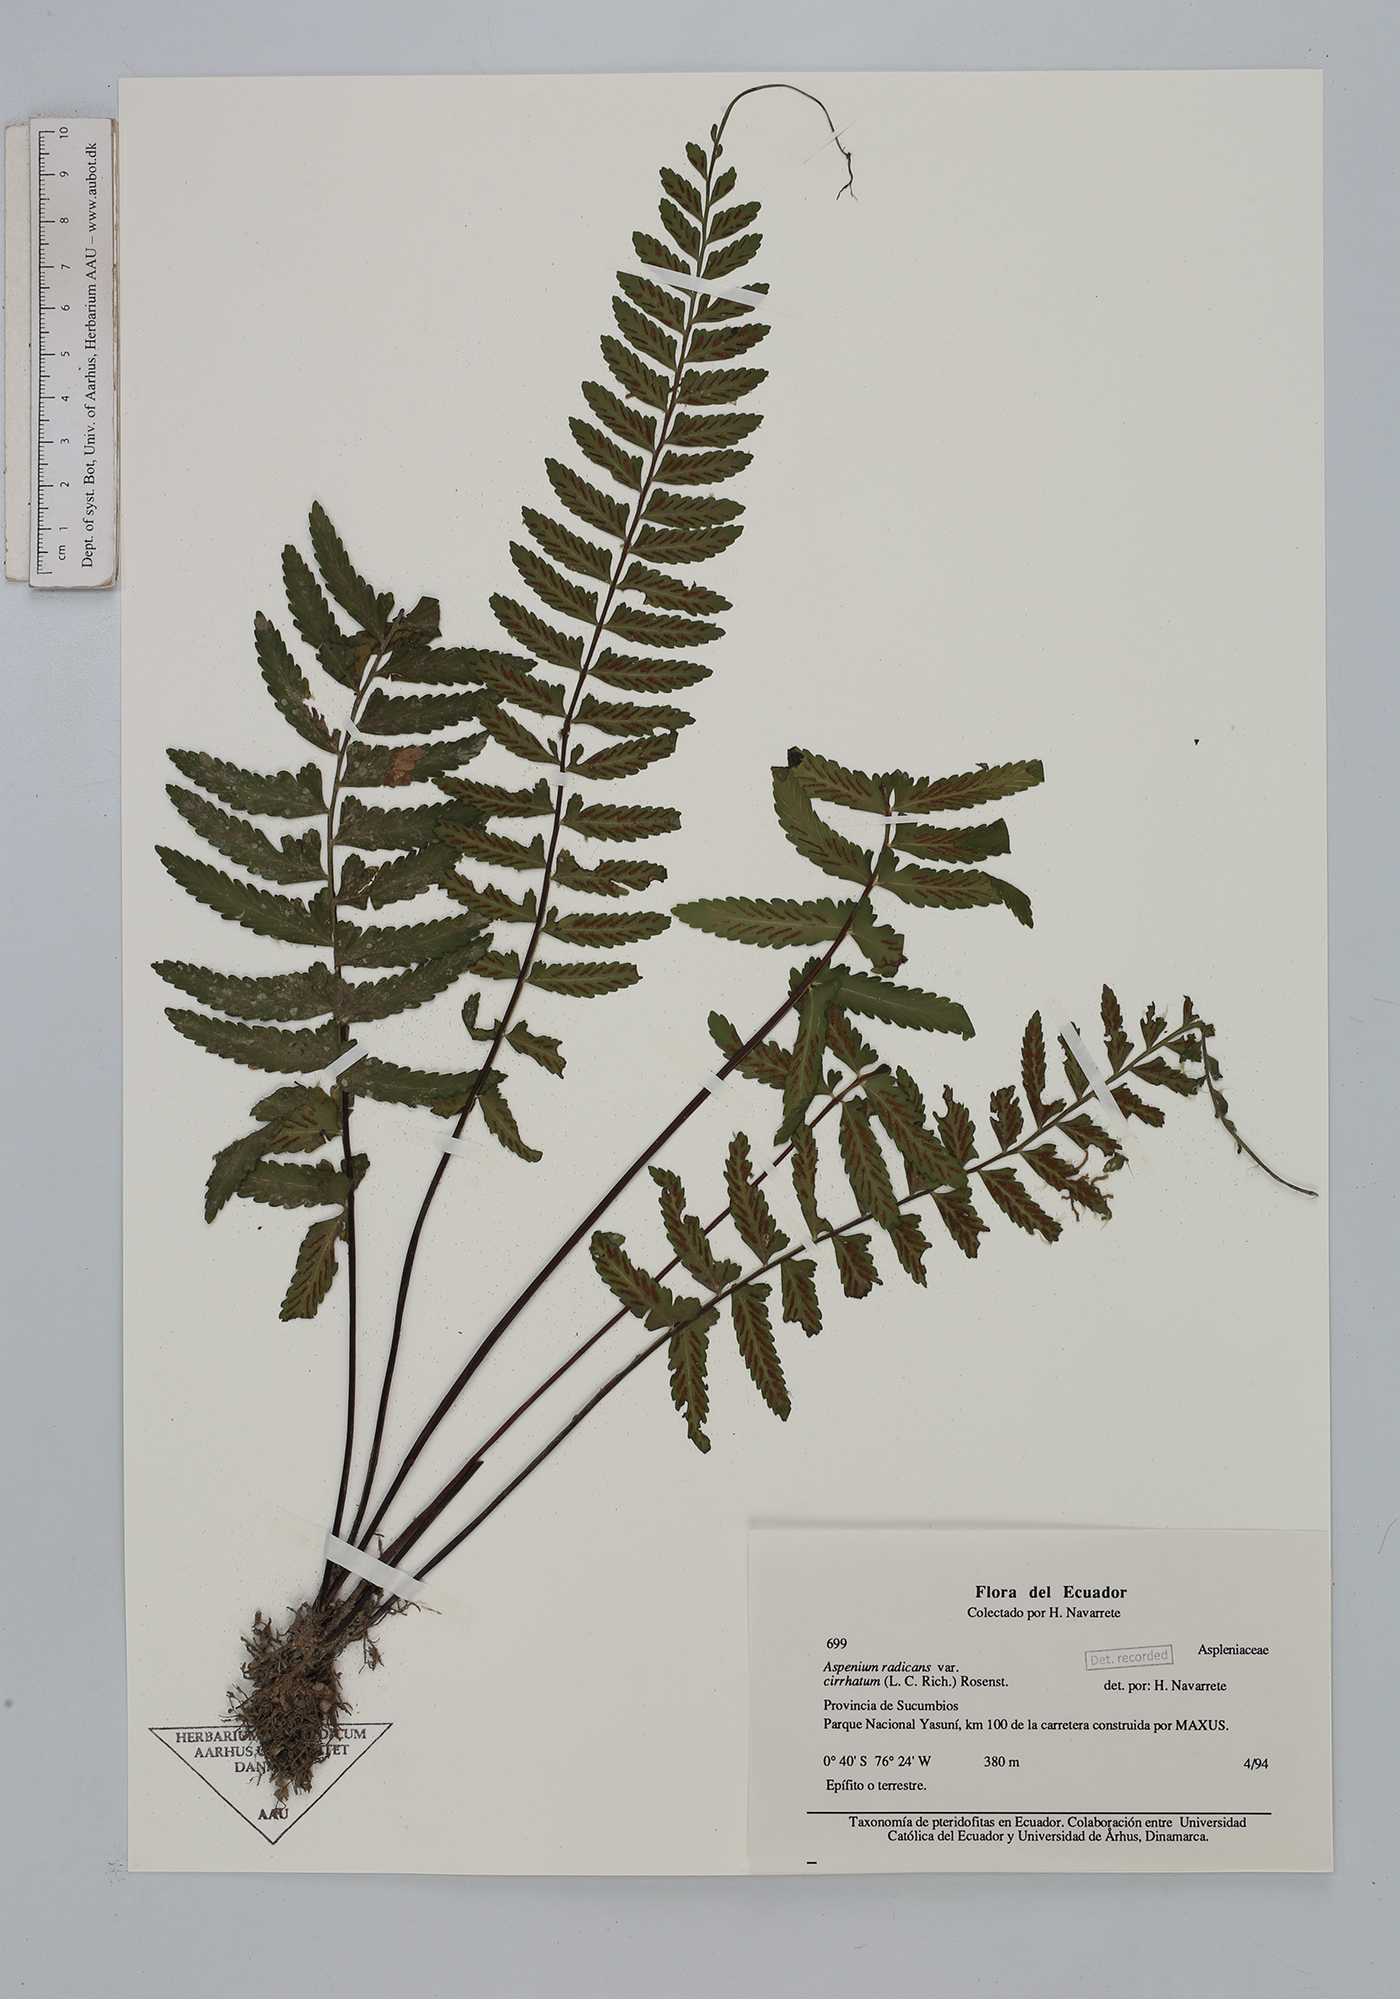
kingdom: Plantae
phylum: Tracheophyta
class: Polypodiopsida
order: Polypodiales
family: Aspleniaceae
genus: Asplenium
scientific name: Asplenium cirrhatum
